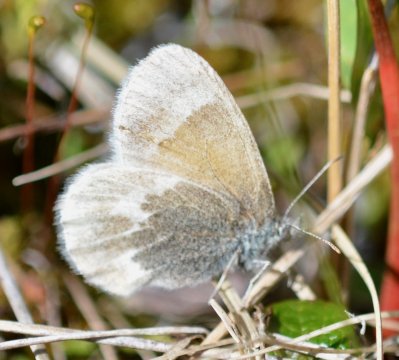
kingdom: Animalia
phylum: Arthropoda
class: Insecta
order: Lepidoptera
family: Nymphalidae
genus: Coenonympha
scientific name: Coenonympha tullia
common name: Large Heath
